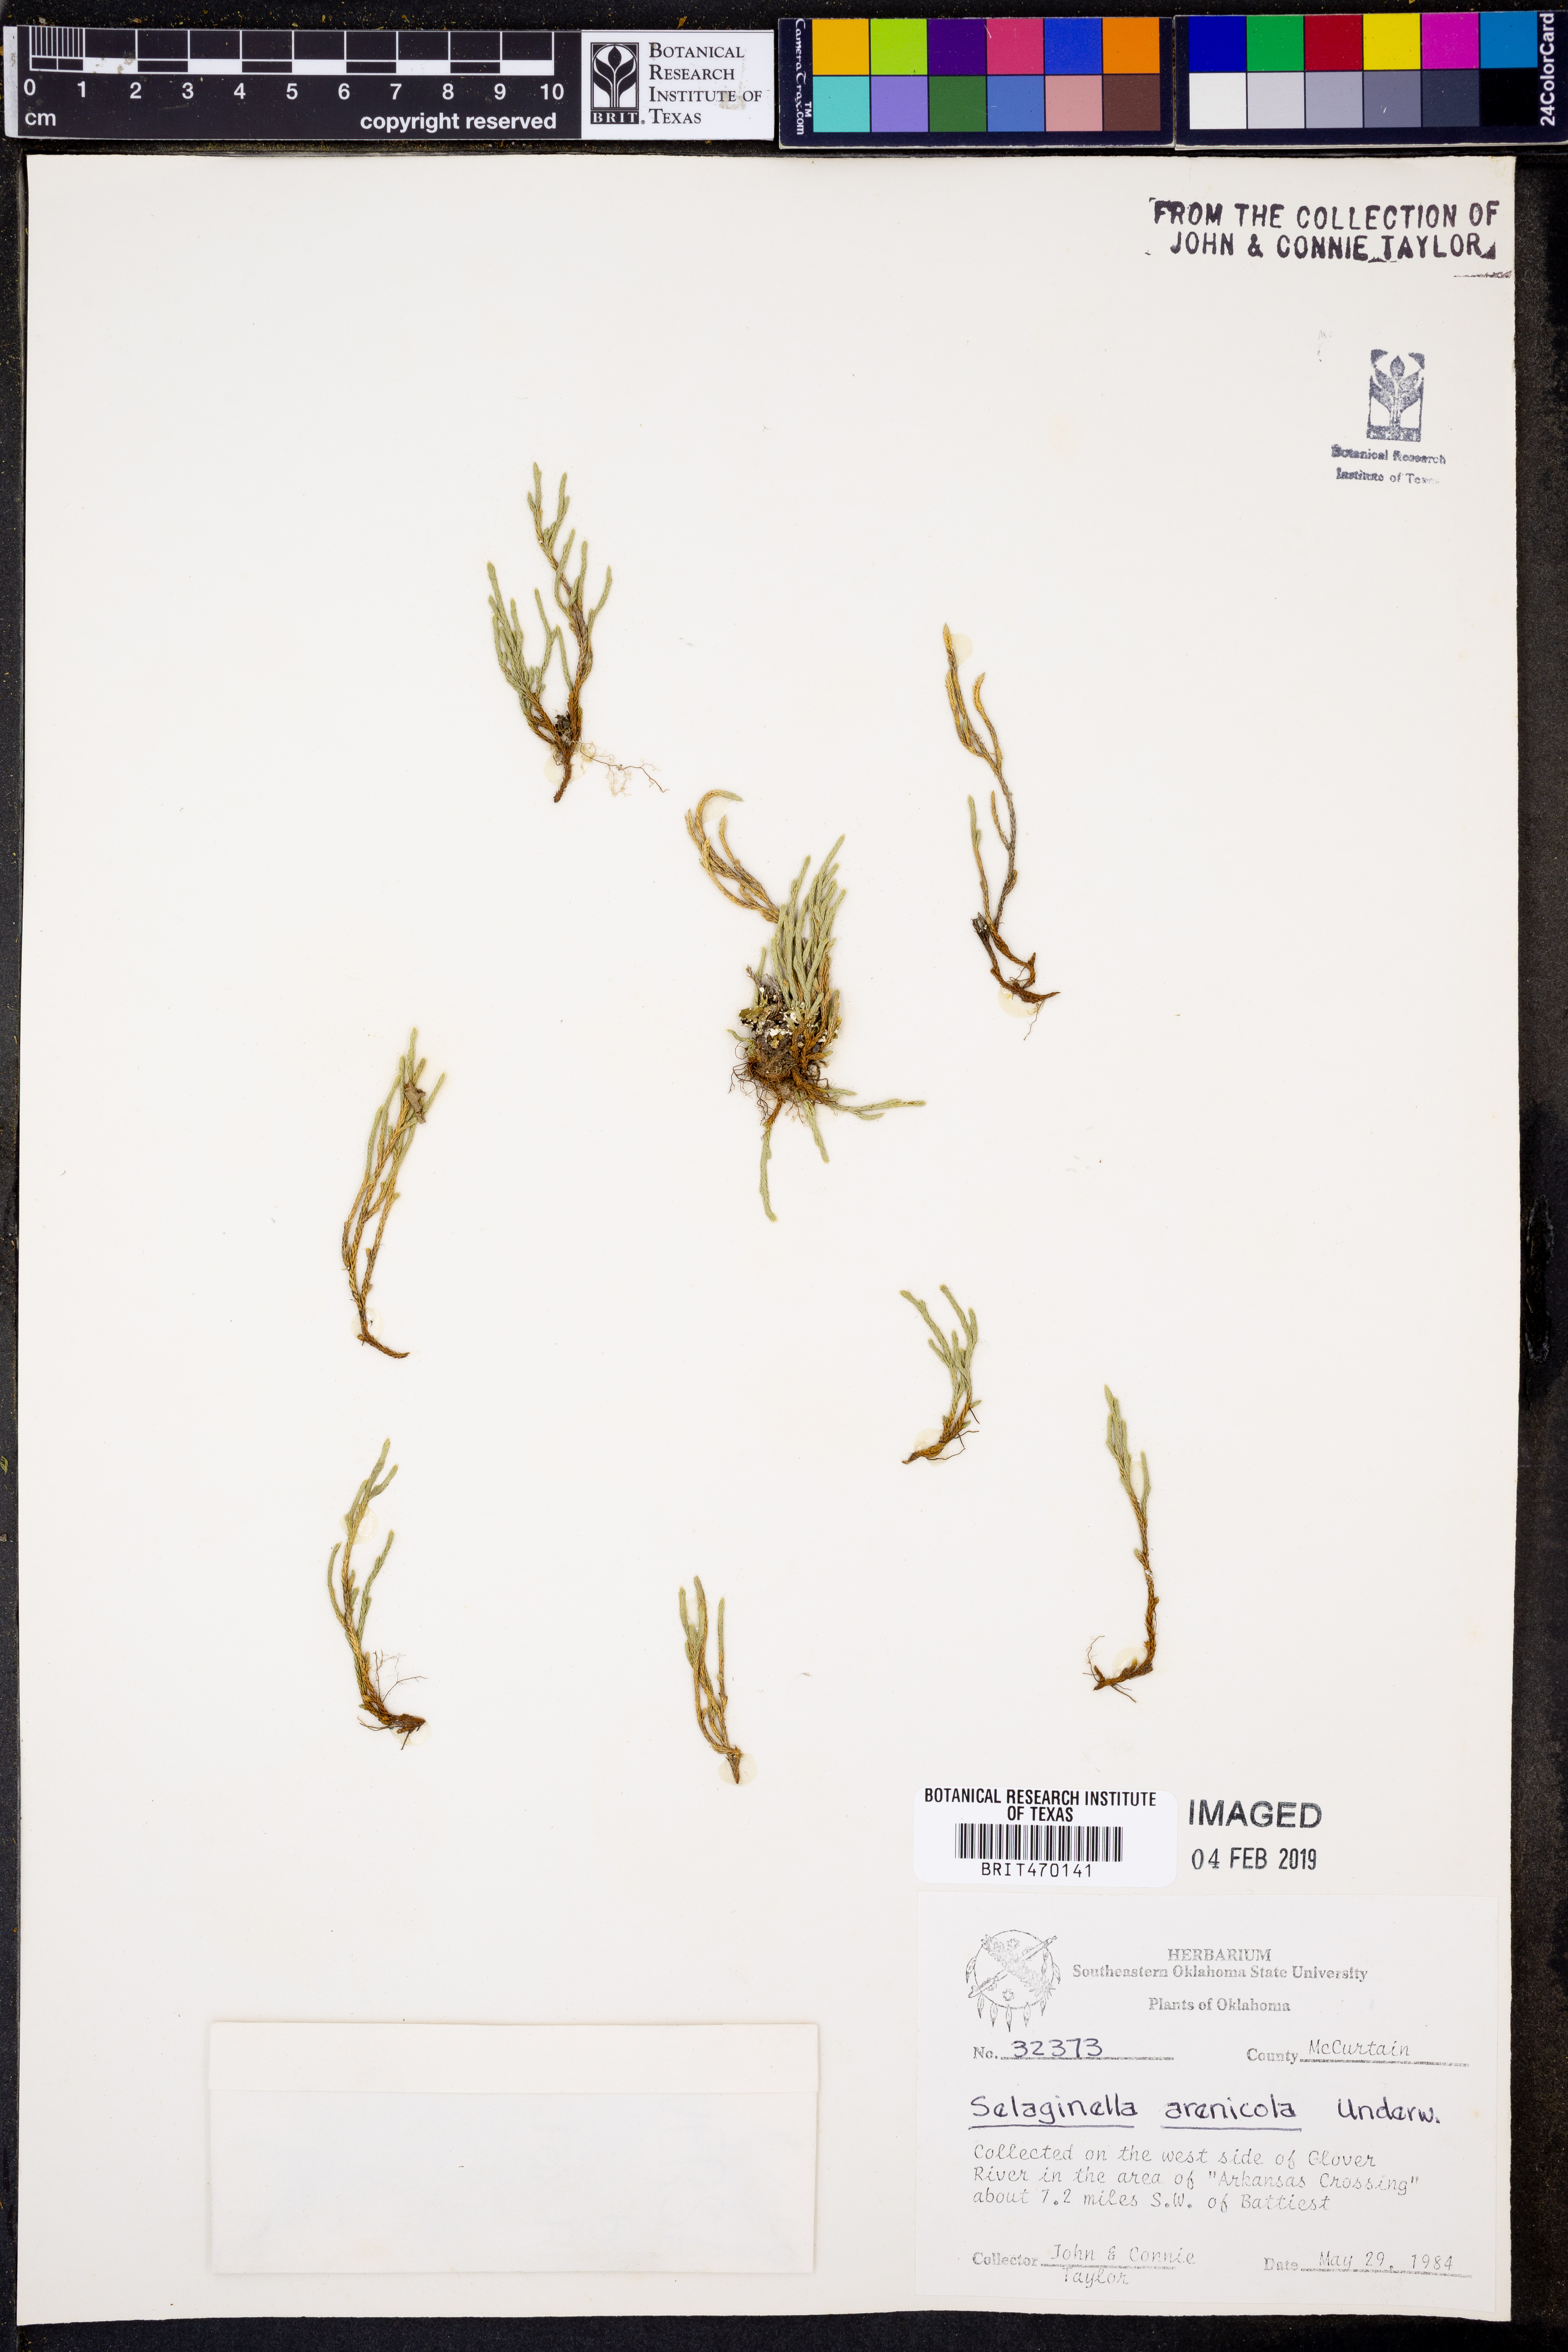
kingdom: Plantae
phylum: Tracheophyta
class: Lycopodiopsida
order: Selaginellales
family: Selaginellaceae
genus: Selaginella
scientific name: Selaginella arenicola
